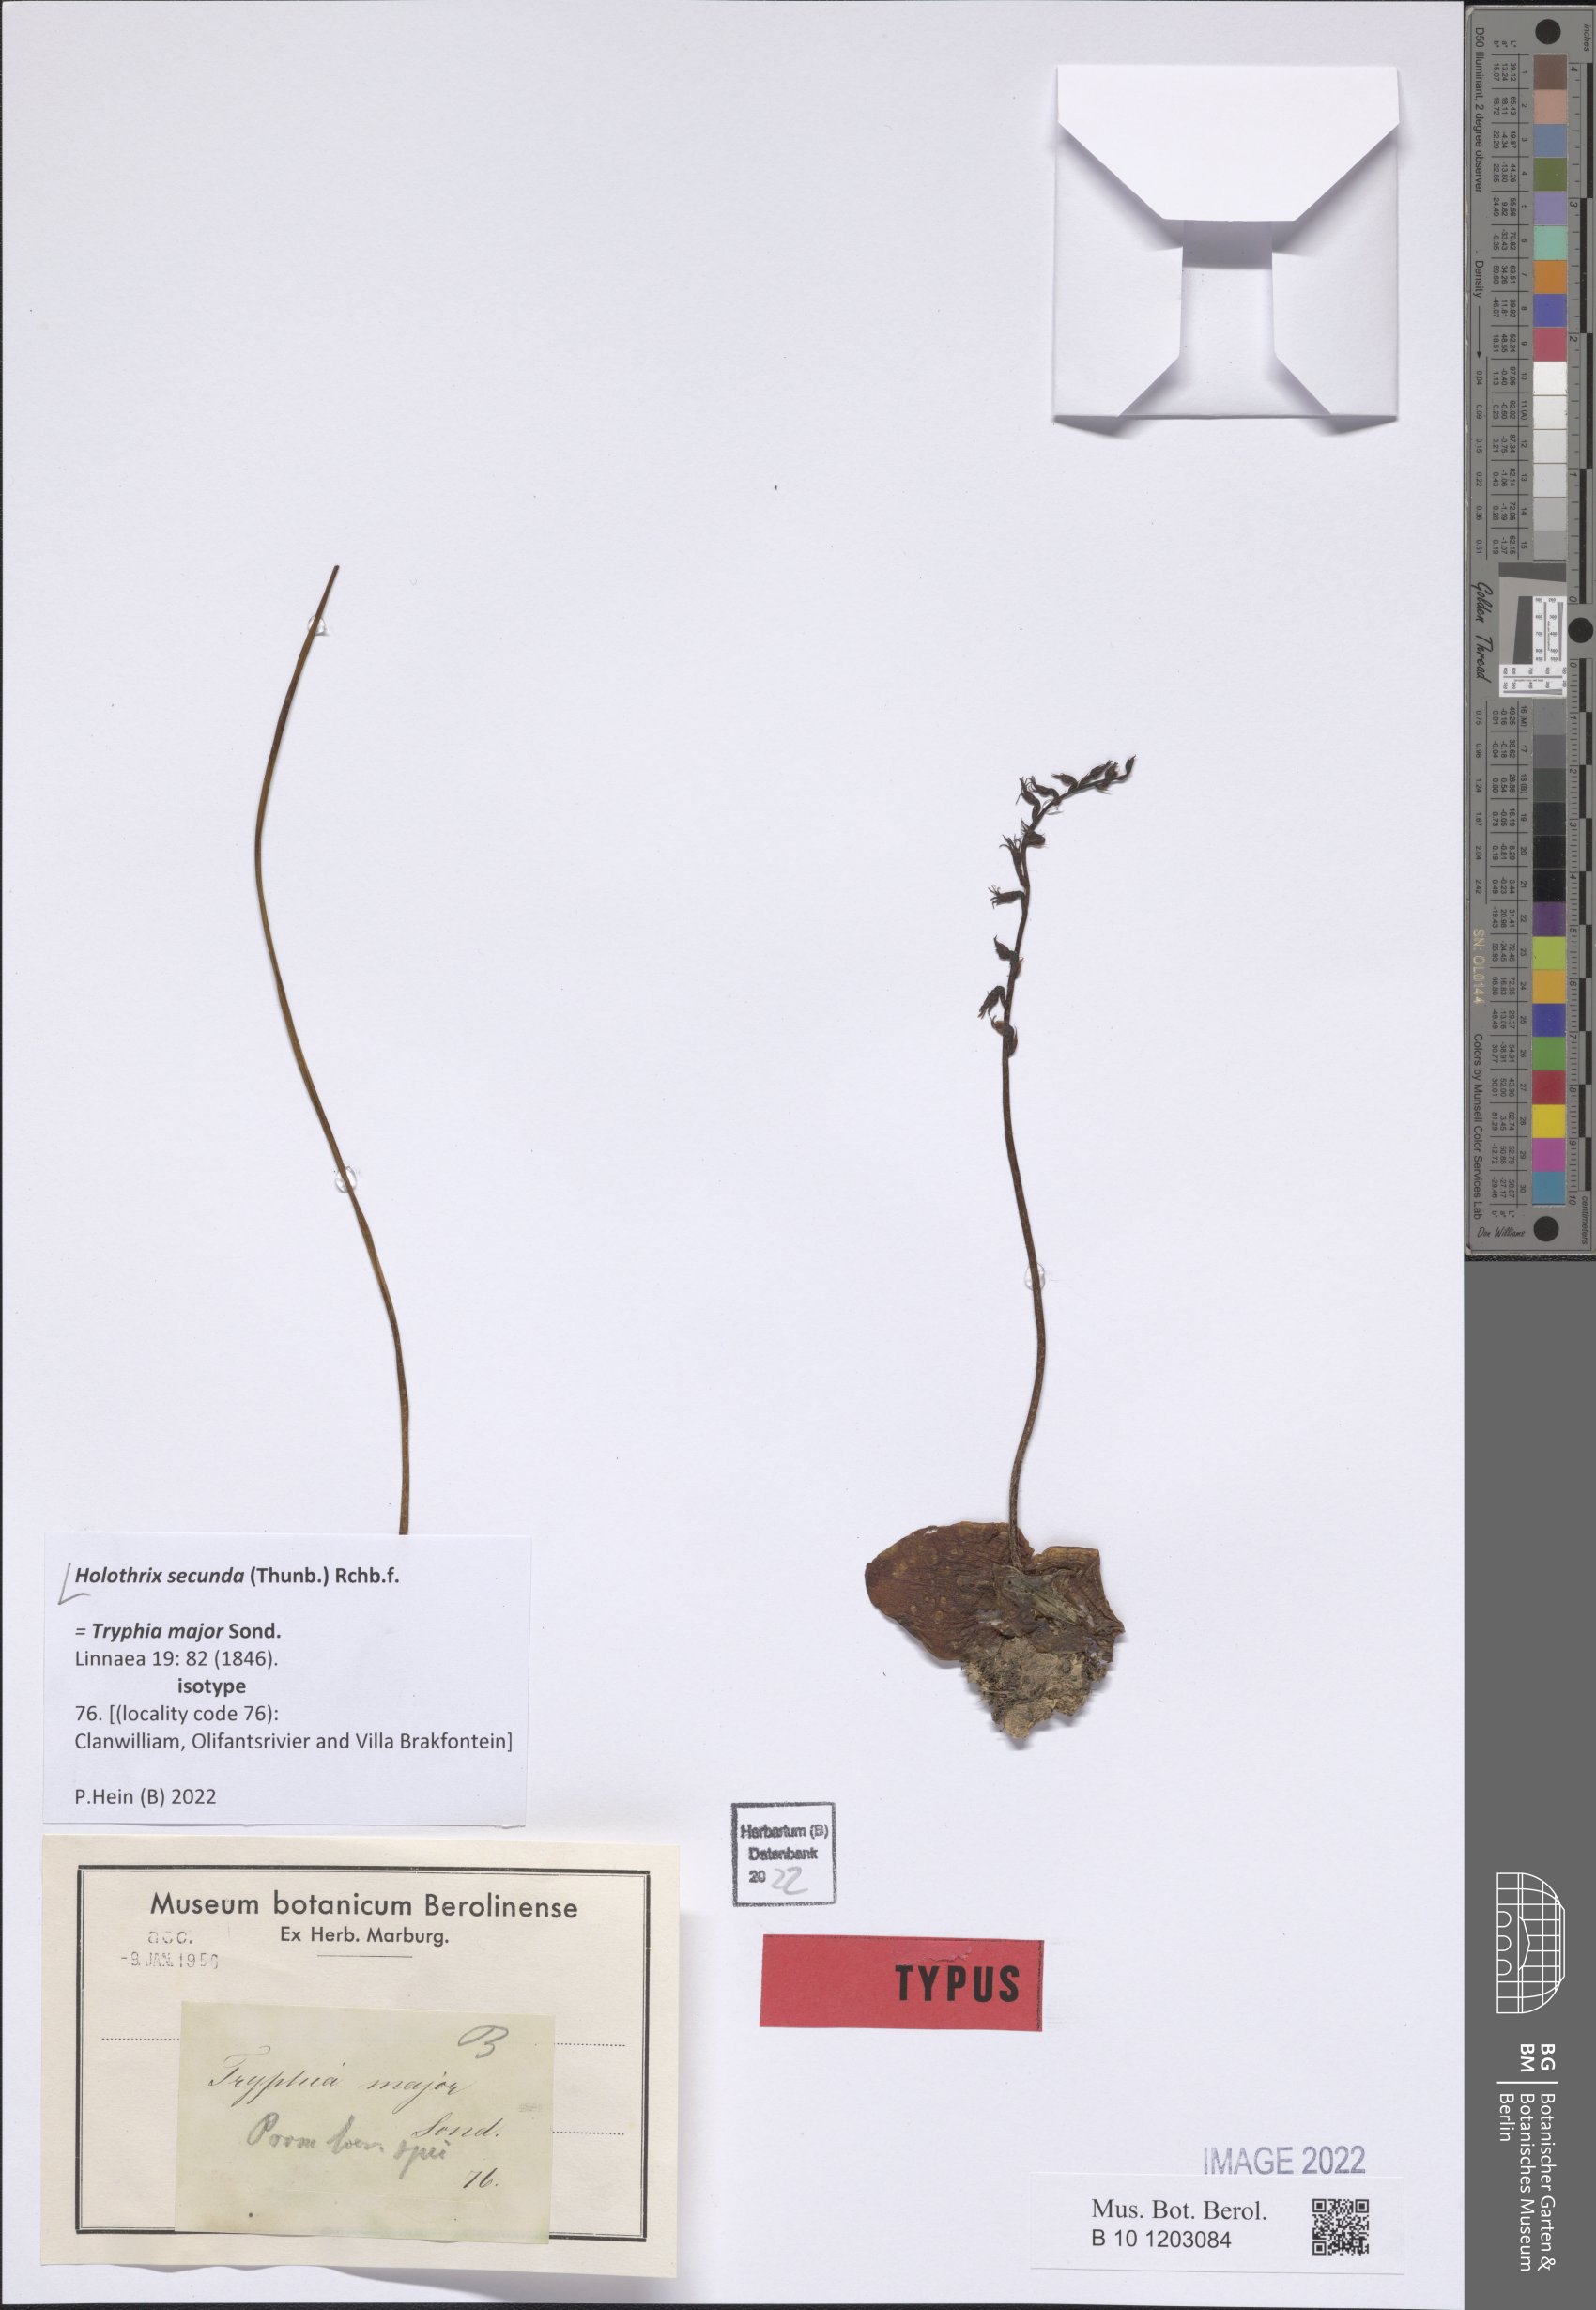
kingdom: Plantae
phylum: Tracheophyta
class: Liliopsida
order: Asparagales
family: Orchidaceae
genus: Holothrix
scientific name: Holothrix secunda
